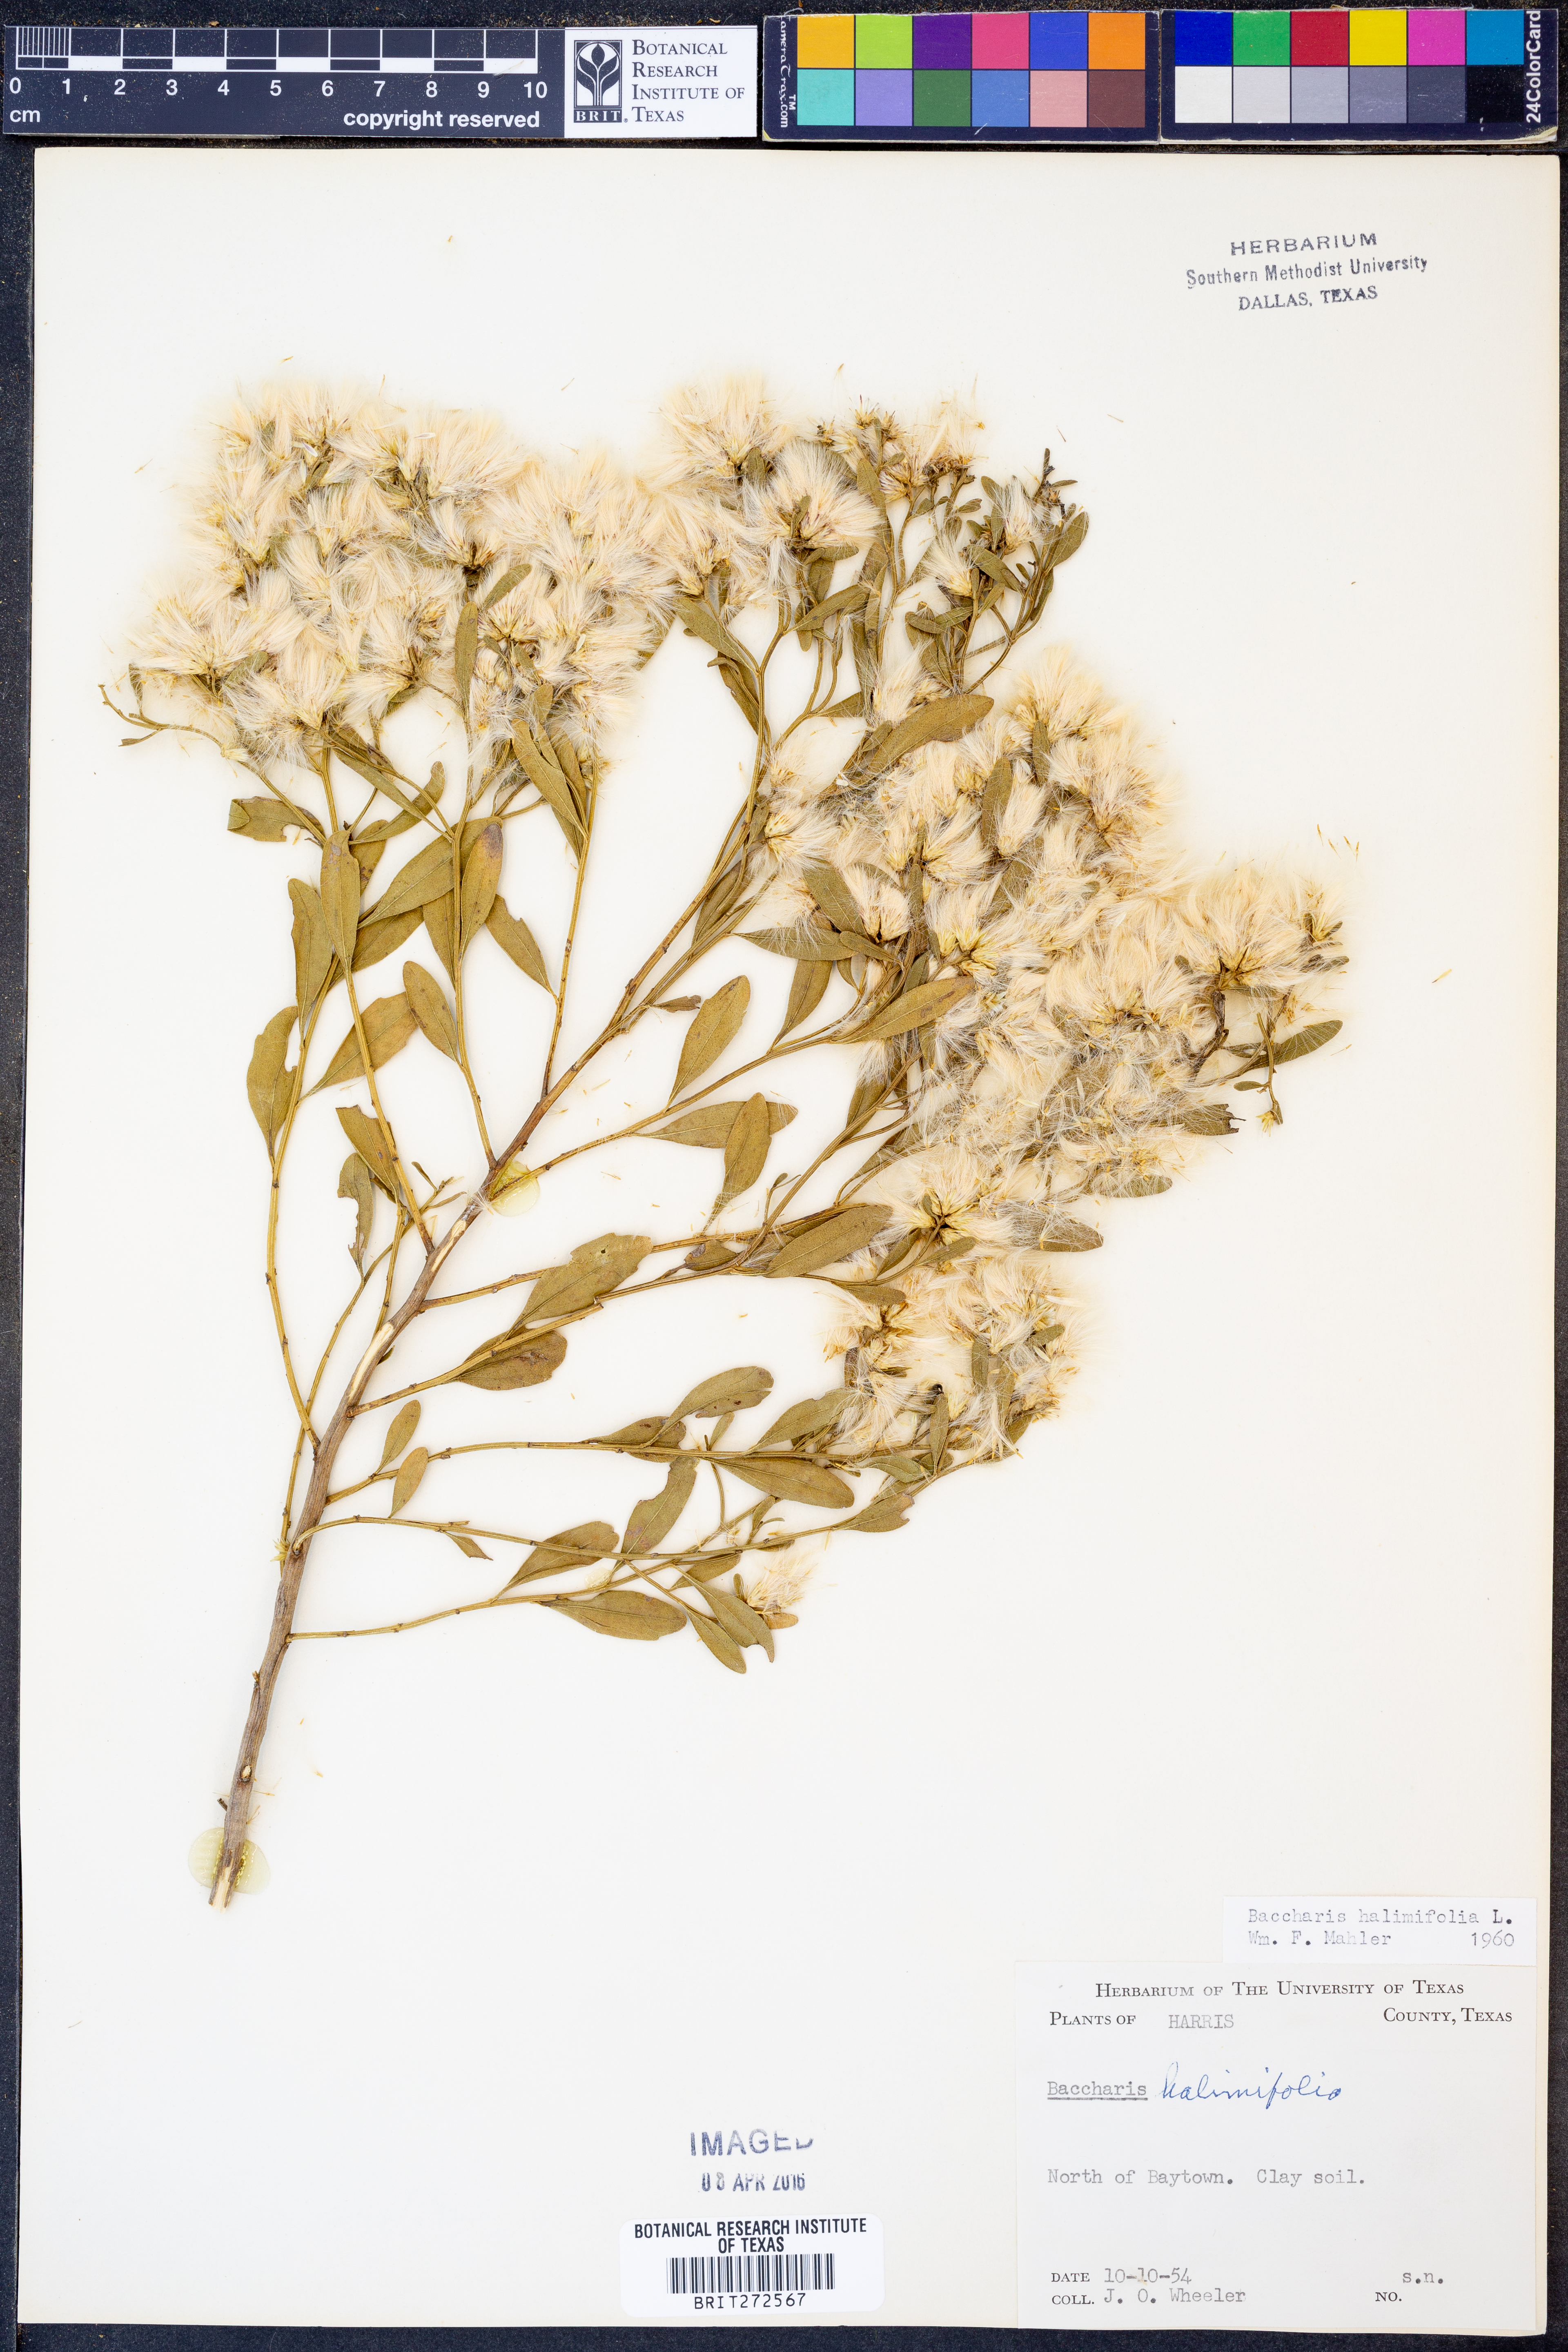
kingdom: Plantae
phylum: Tracheophyta
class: Magnoliopsida
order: Asterales
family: Asteraceae
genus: Nidorella
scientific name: Nidorella ivifolia
